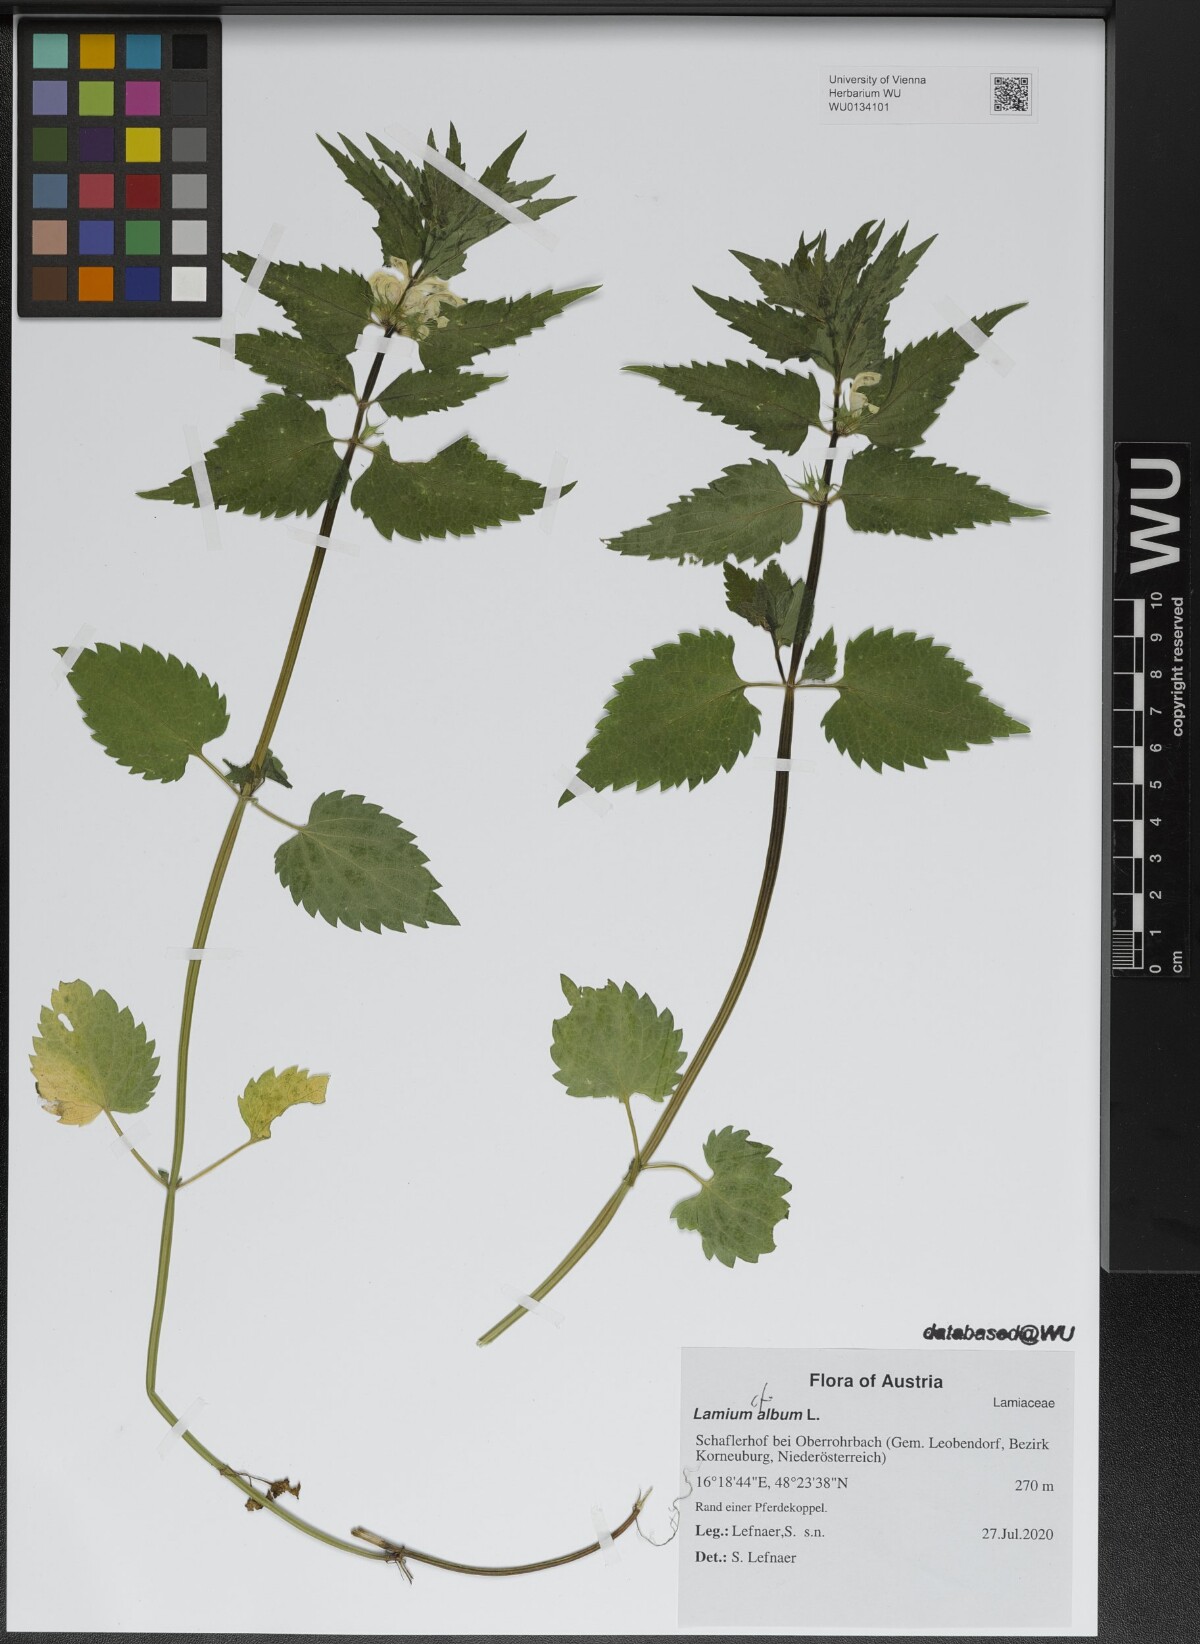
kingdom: Plantae
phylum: Tracheophyta
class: Magnoliopsida
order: Lamiales
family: Lamiaceae
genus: Lamium
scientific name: Lamium album
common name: White dead-nettle
